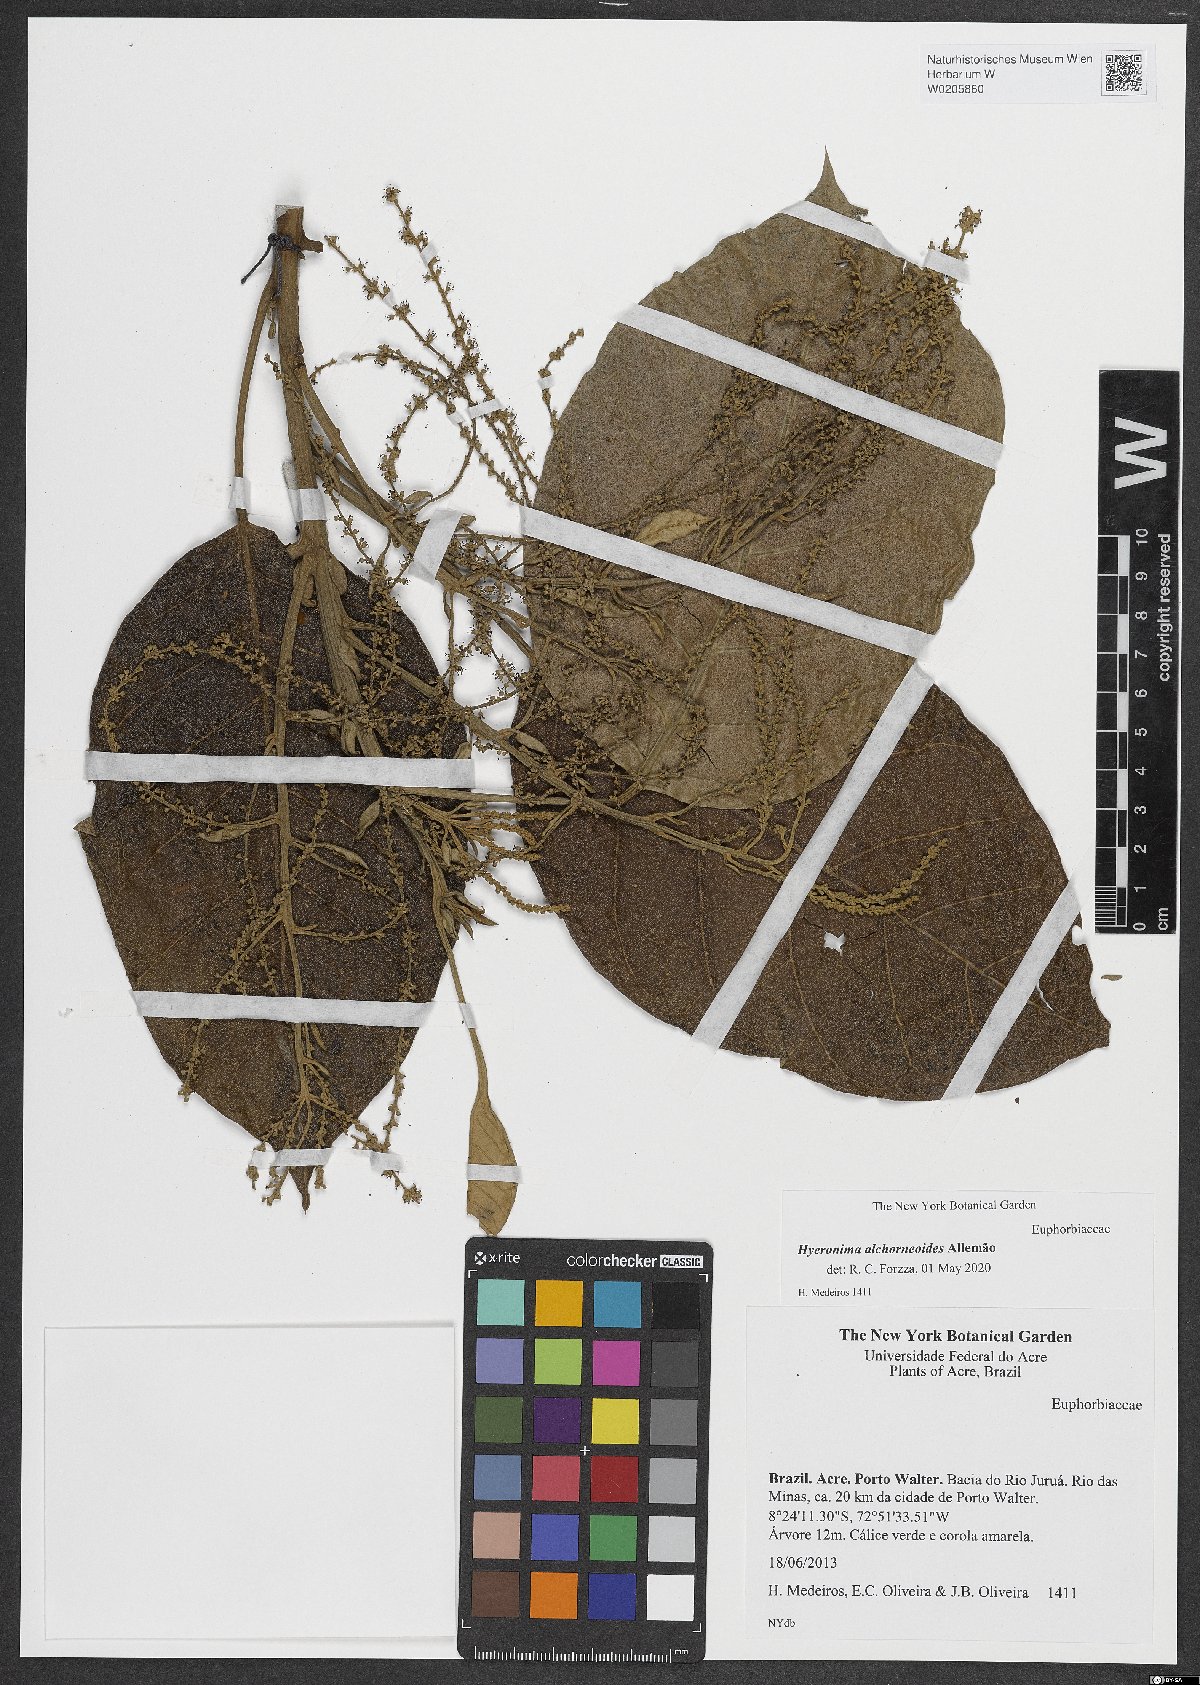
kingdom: Plantae
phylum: Tracheophyta
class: Magnoliopsida
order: Malpighiales
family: Phyllanthaceae
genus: Hieronyma
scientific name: Hieronyma alchorneoides
